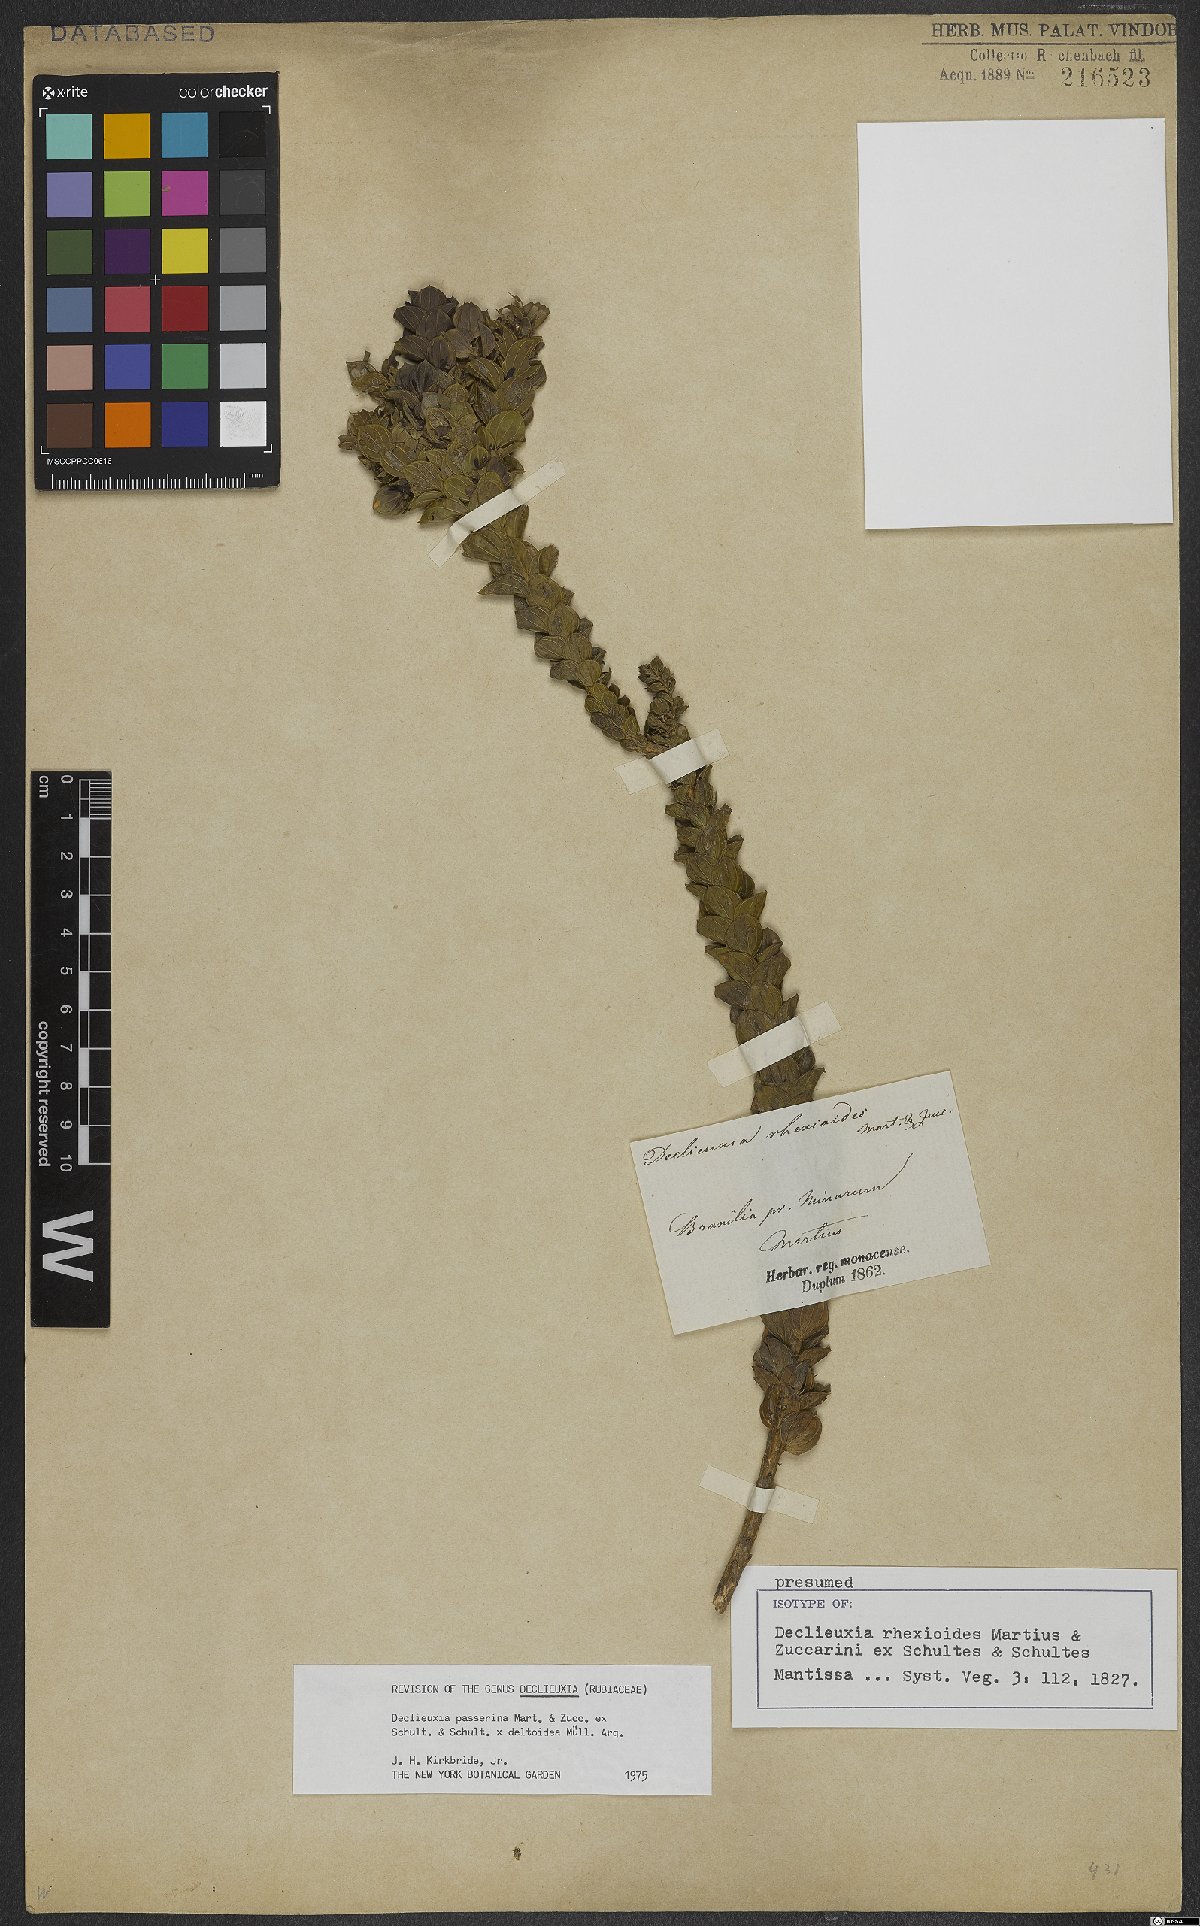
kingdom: Plantae
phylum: Tracheophyta
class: Magnoliopsida
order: Gentianales
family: Rubiaceae
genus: Declieuxia
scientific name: Declieuxia rhexioides
